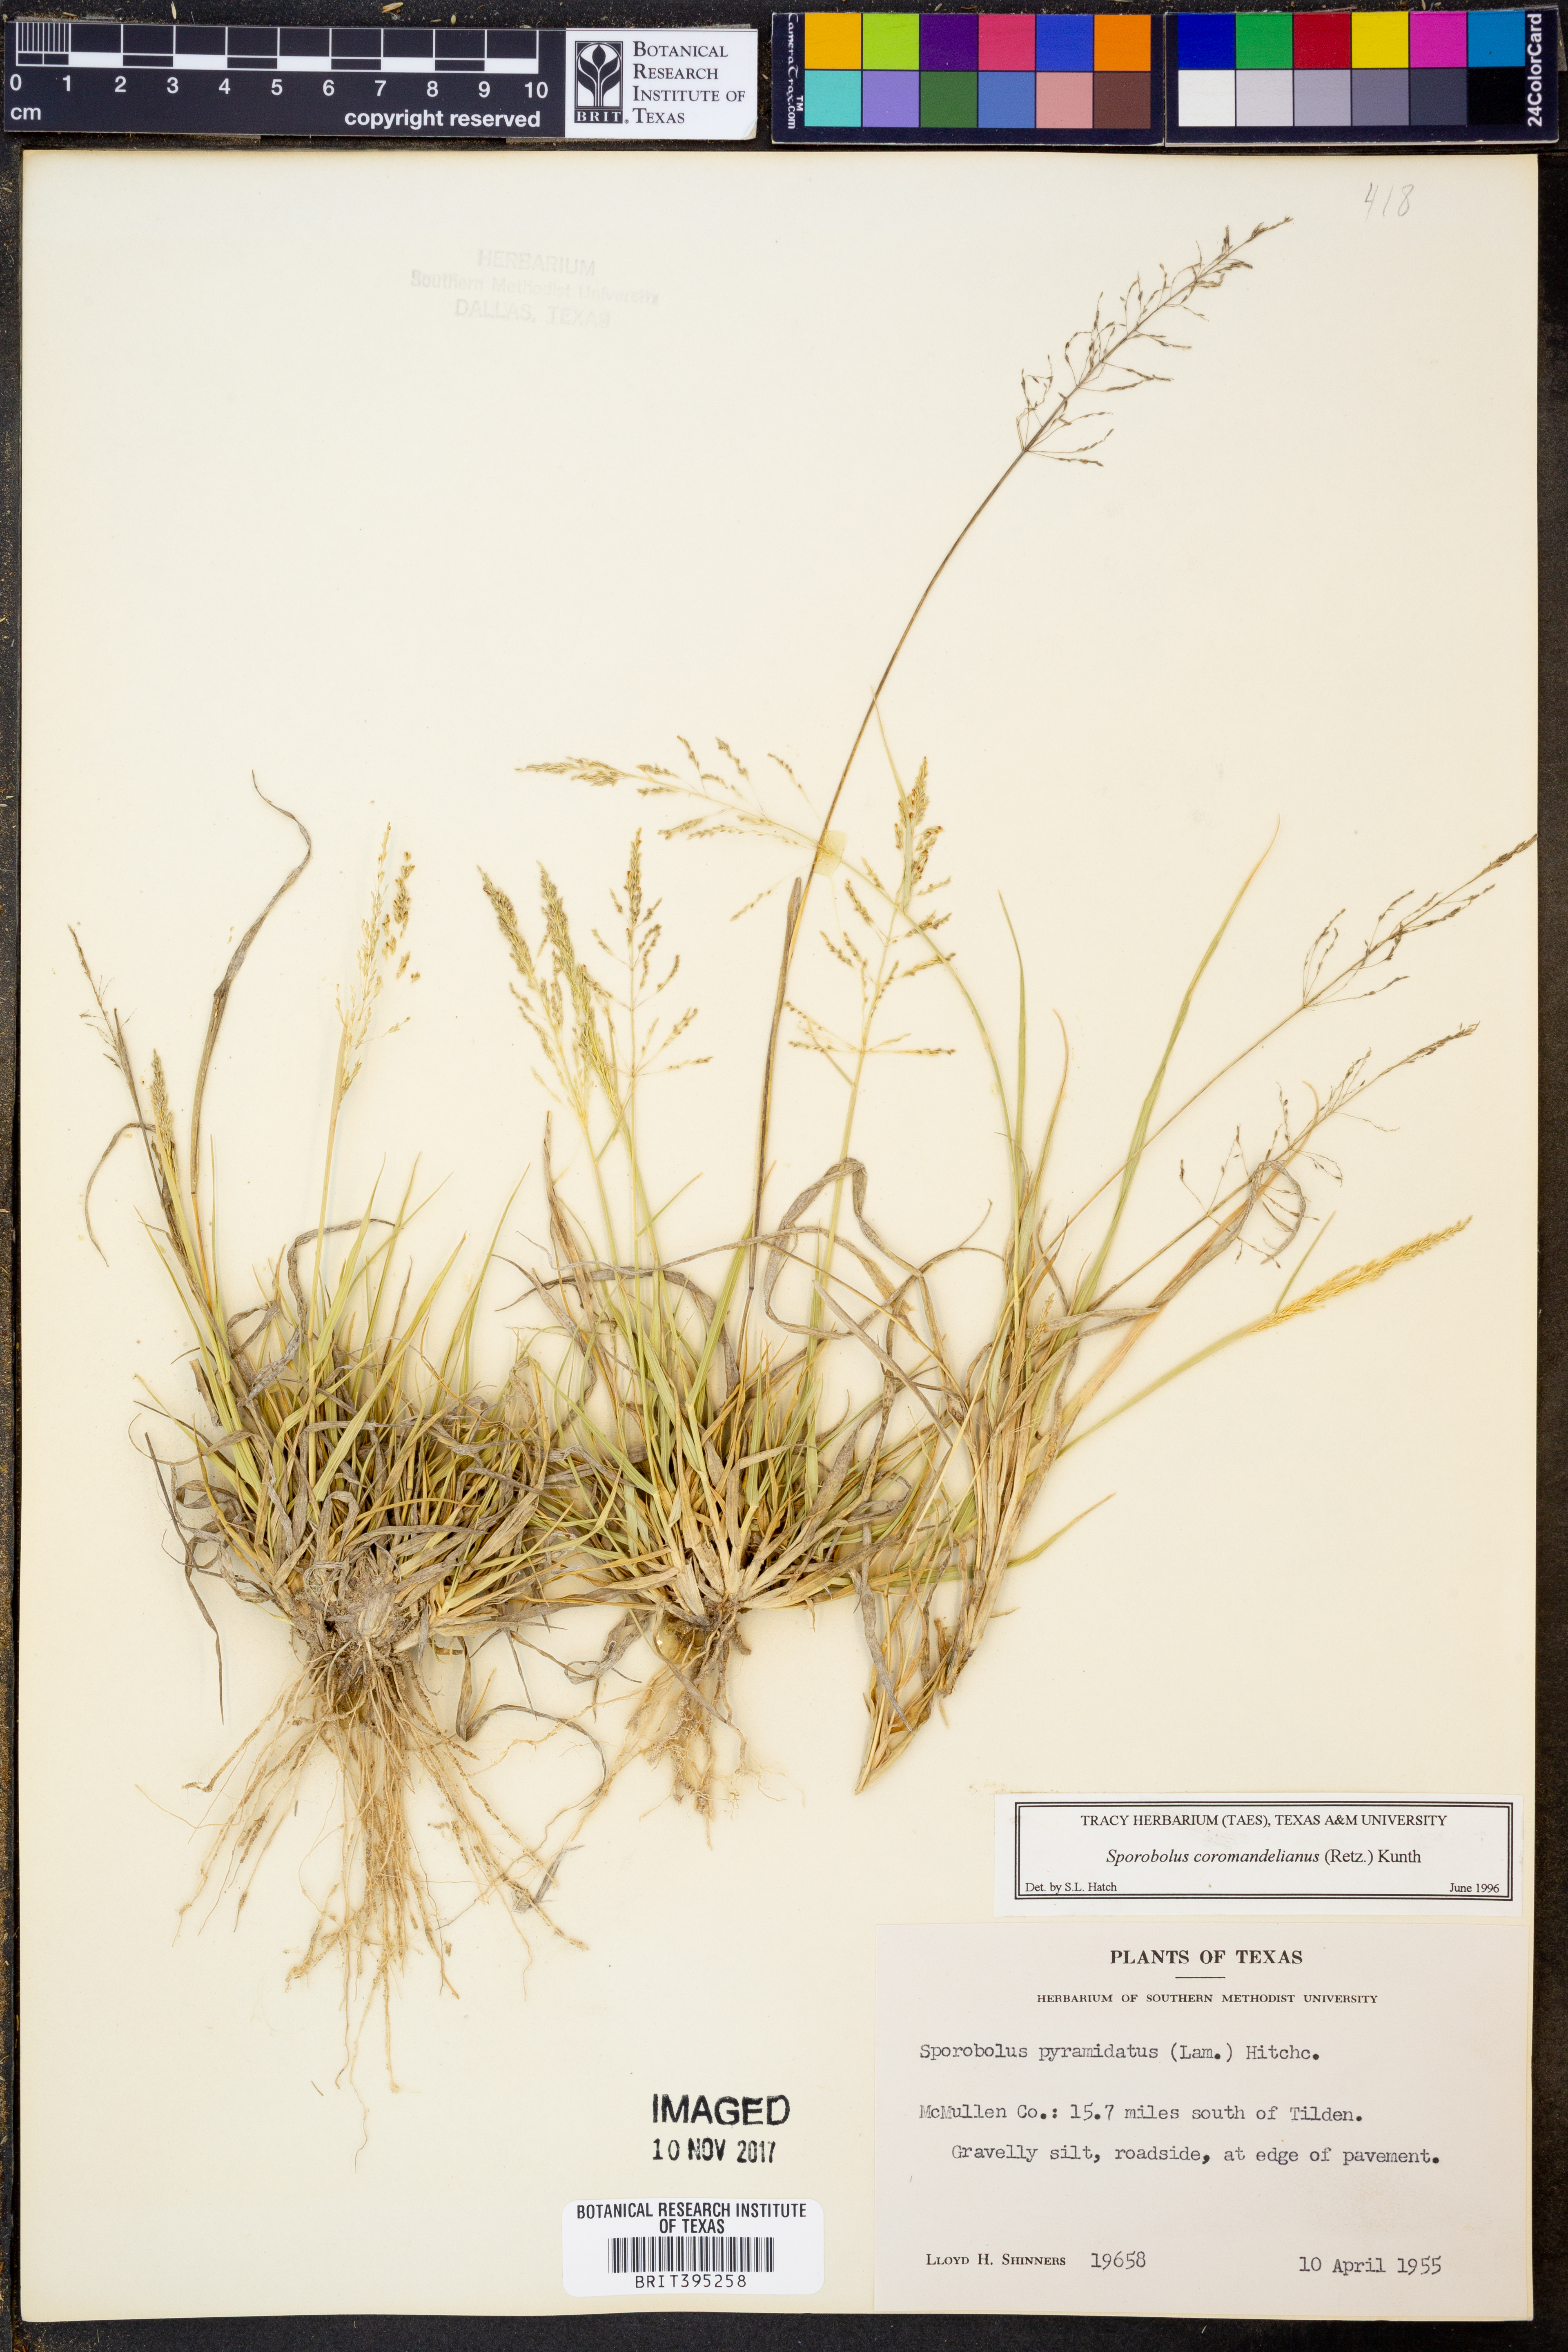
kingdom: Plantae
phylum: Tracheophyta
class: Liliopsida
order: Poales
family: Poaceae
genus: Sporobolus
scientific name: Sporobolus coromandelianus
